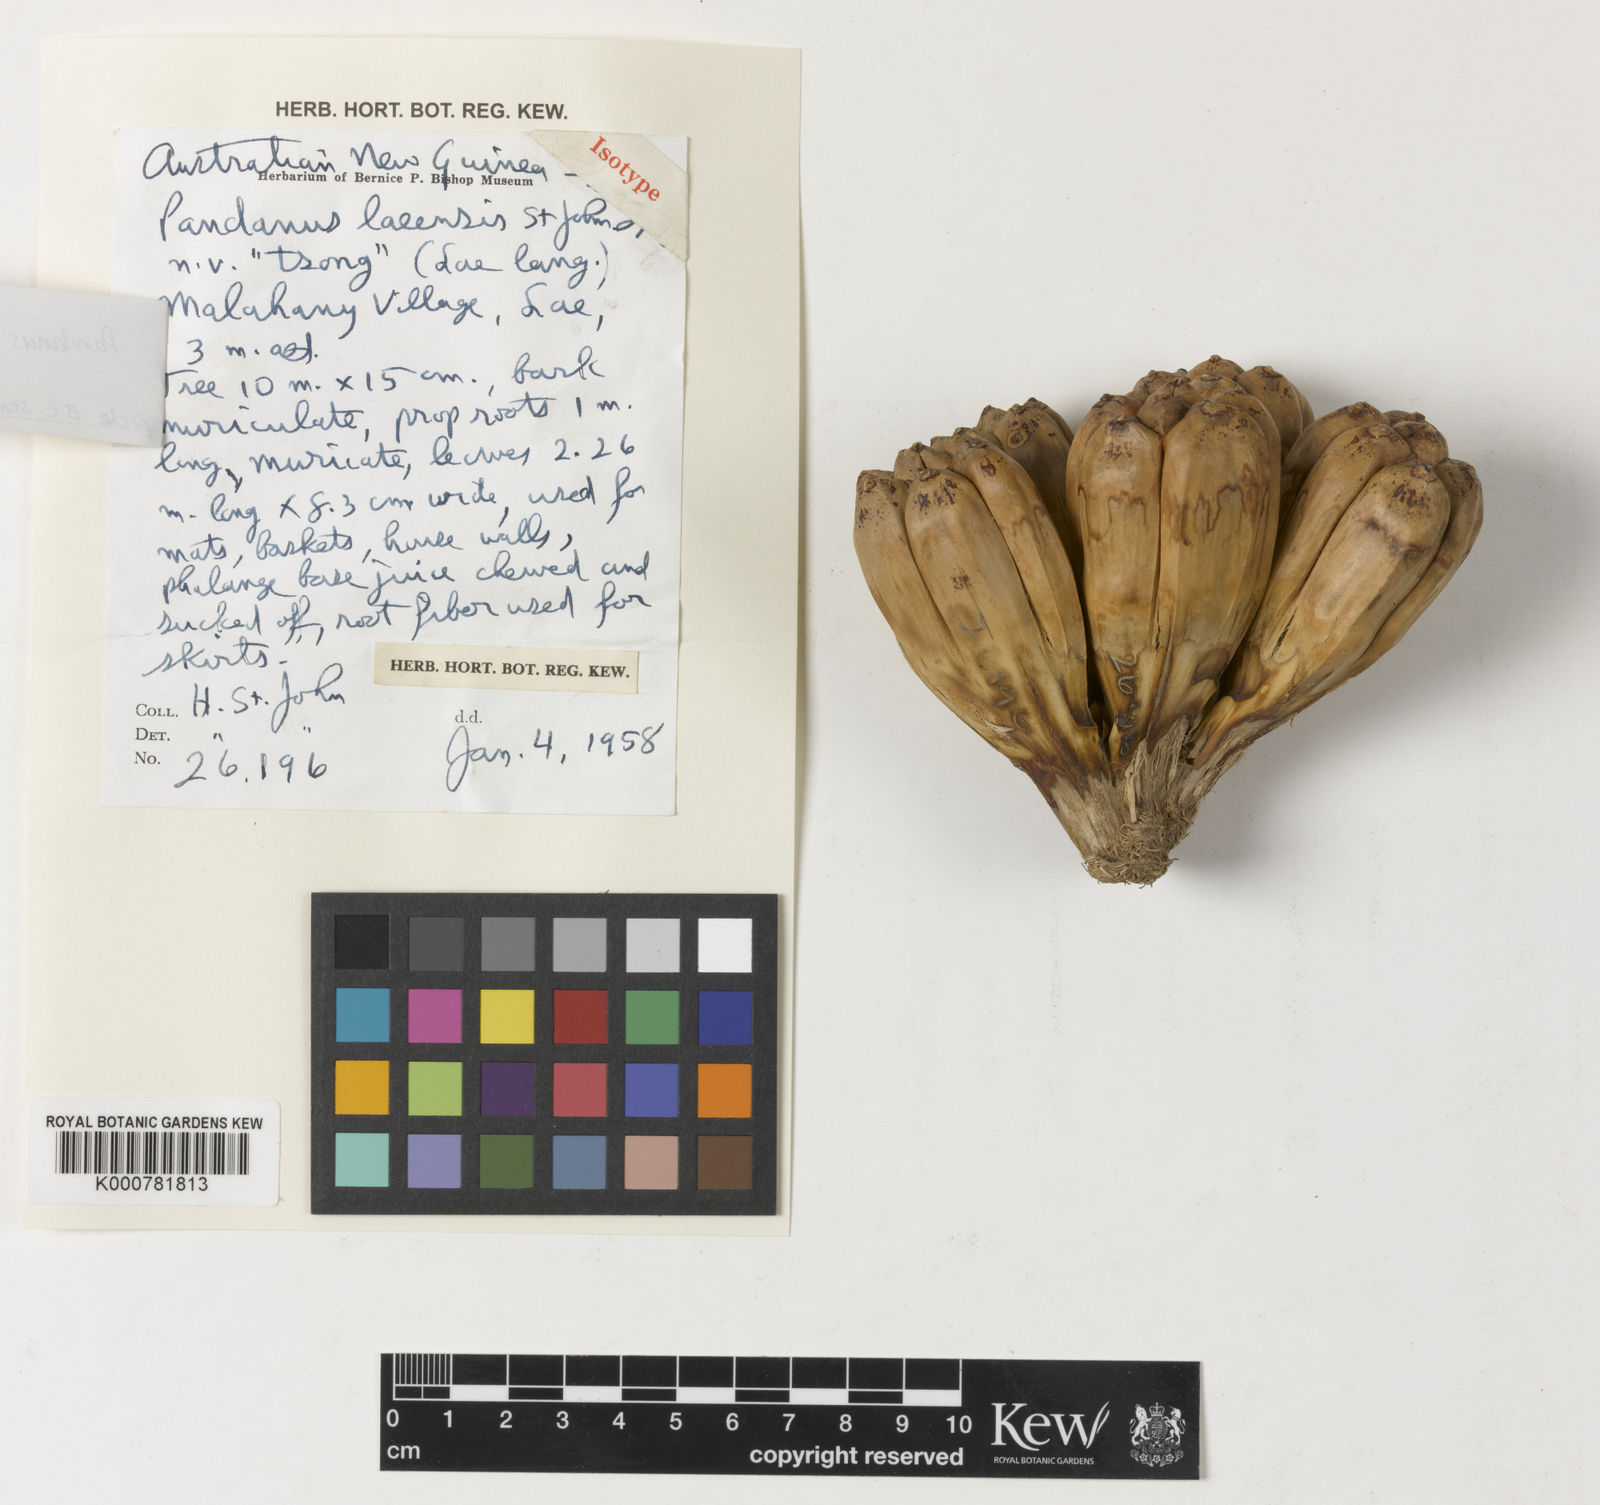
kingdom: Plantae
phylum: Tracheophyta
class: Liliopsida
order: Pandanales
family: Pandanaceae
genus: Pandanus
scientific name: Pandanus
